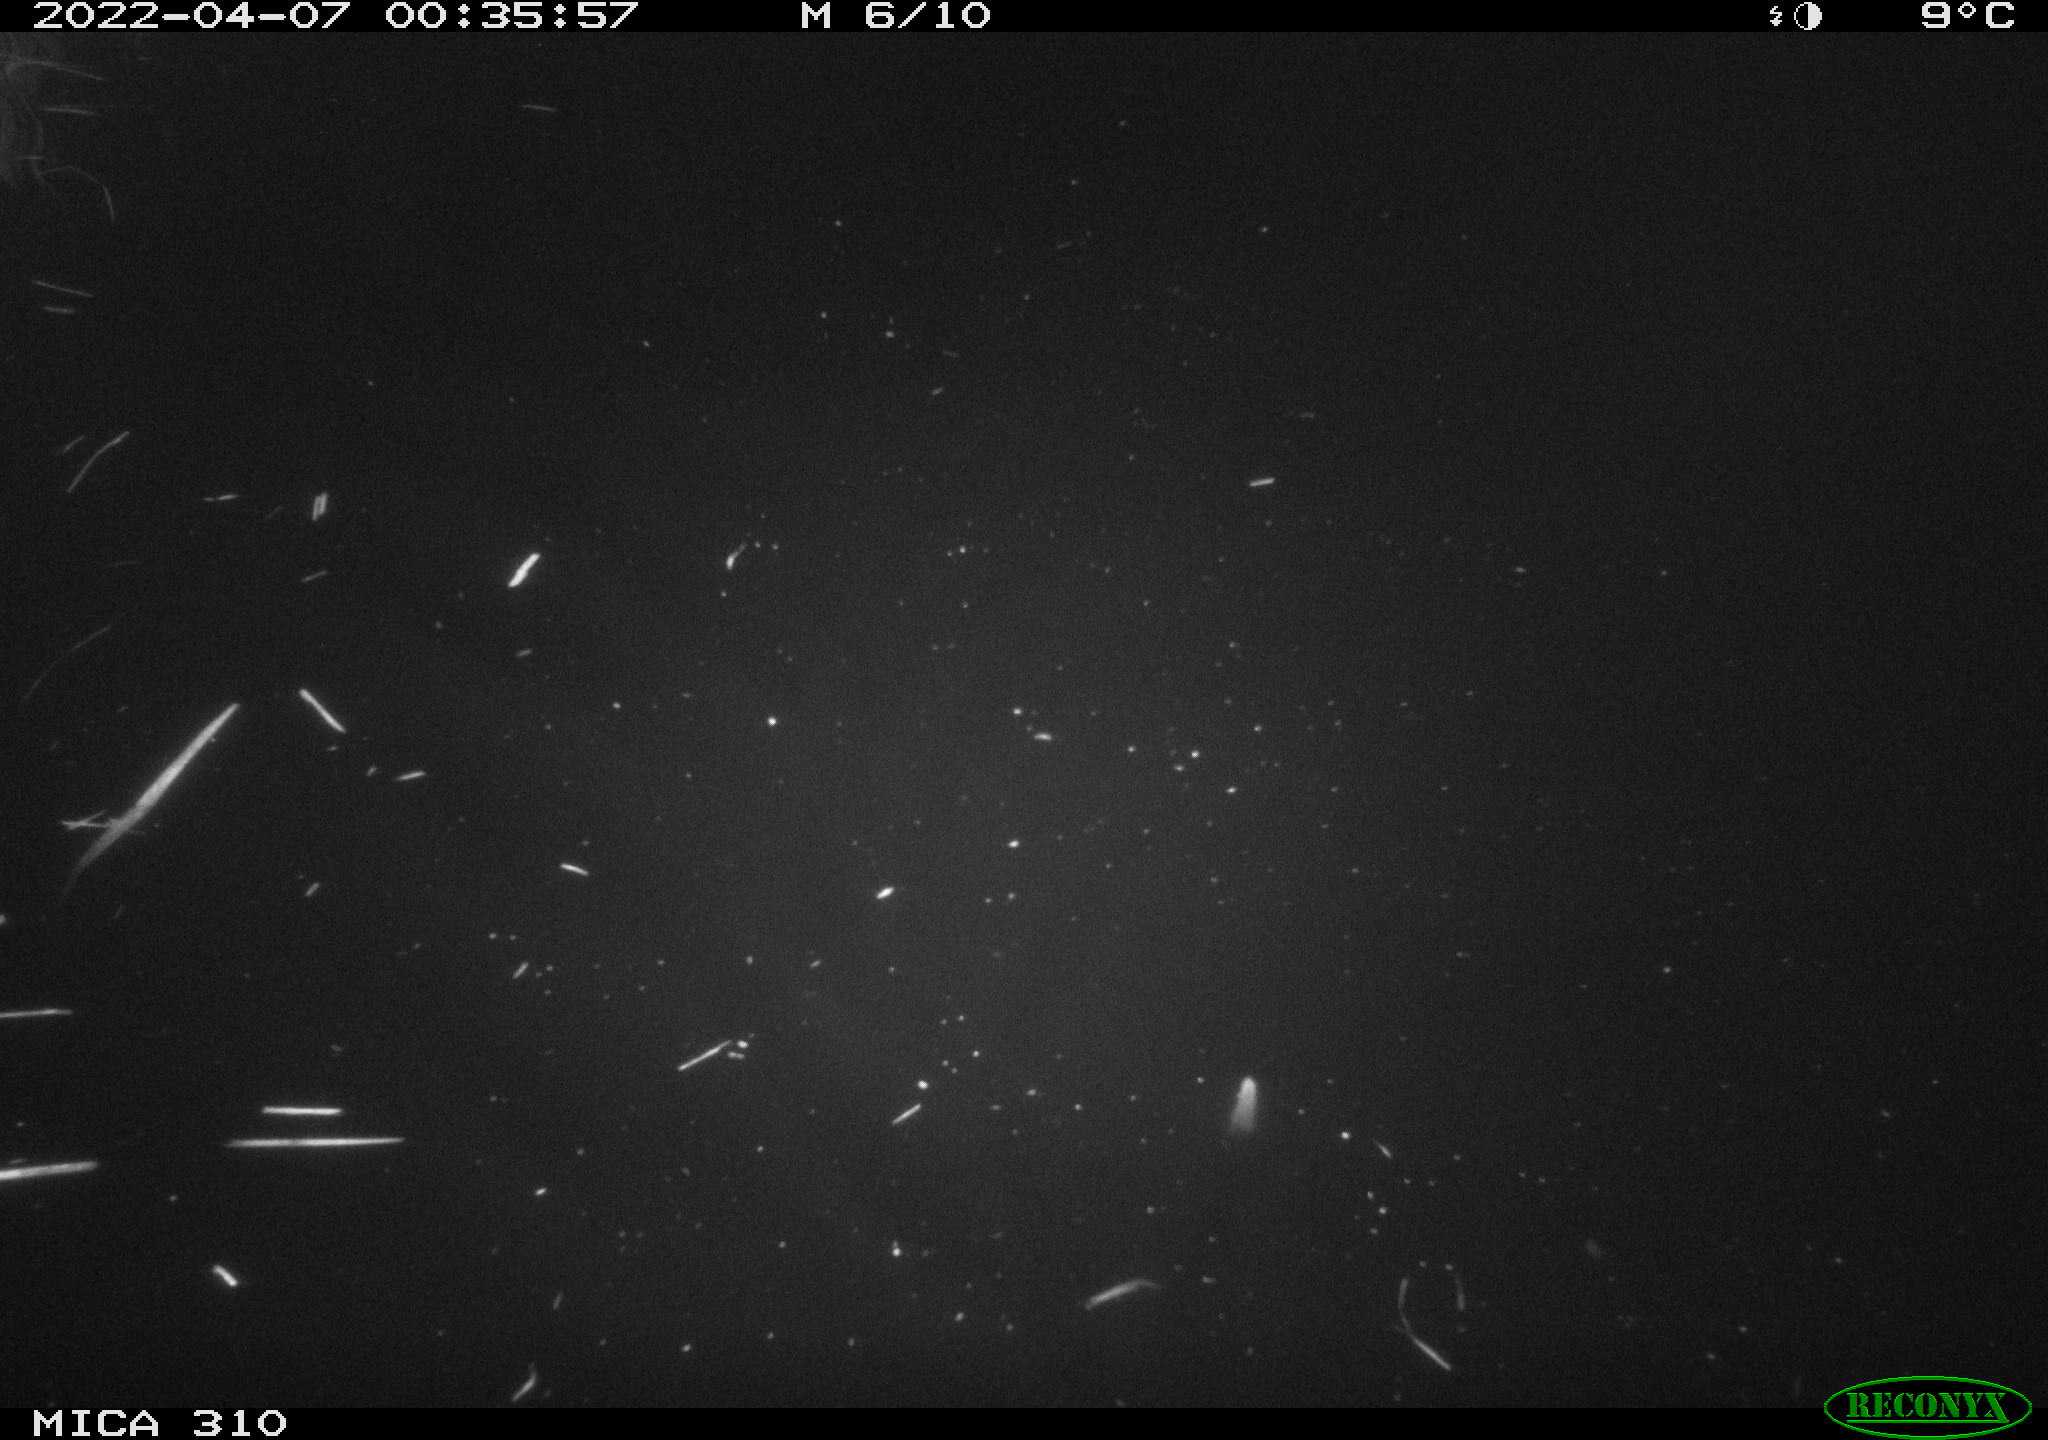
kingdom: Animalia
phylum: Chordata
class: Mammalia
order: Rodentia
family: Cricetidae
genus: Ondatra
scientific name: Ondatra zibethicus
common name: Muskrat
